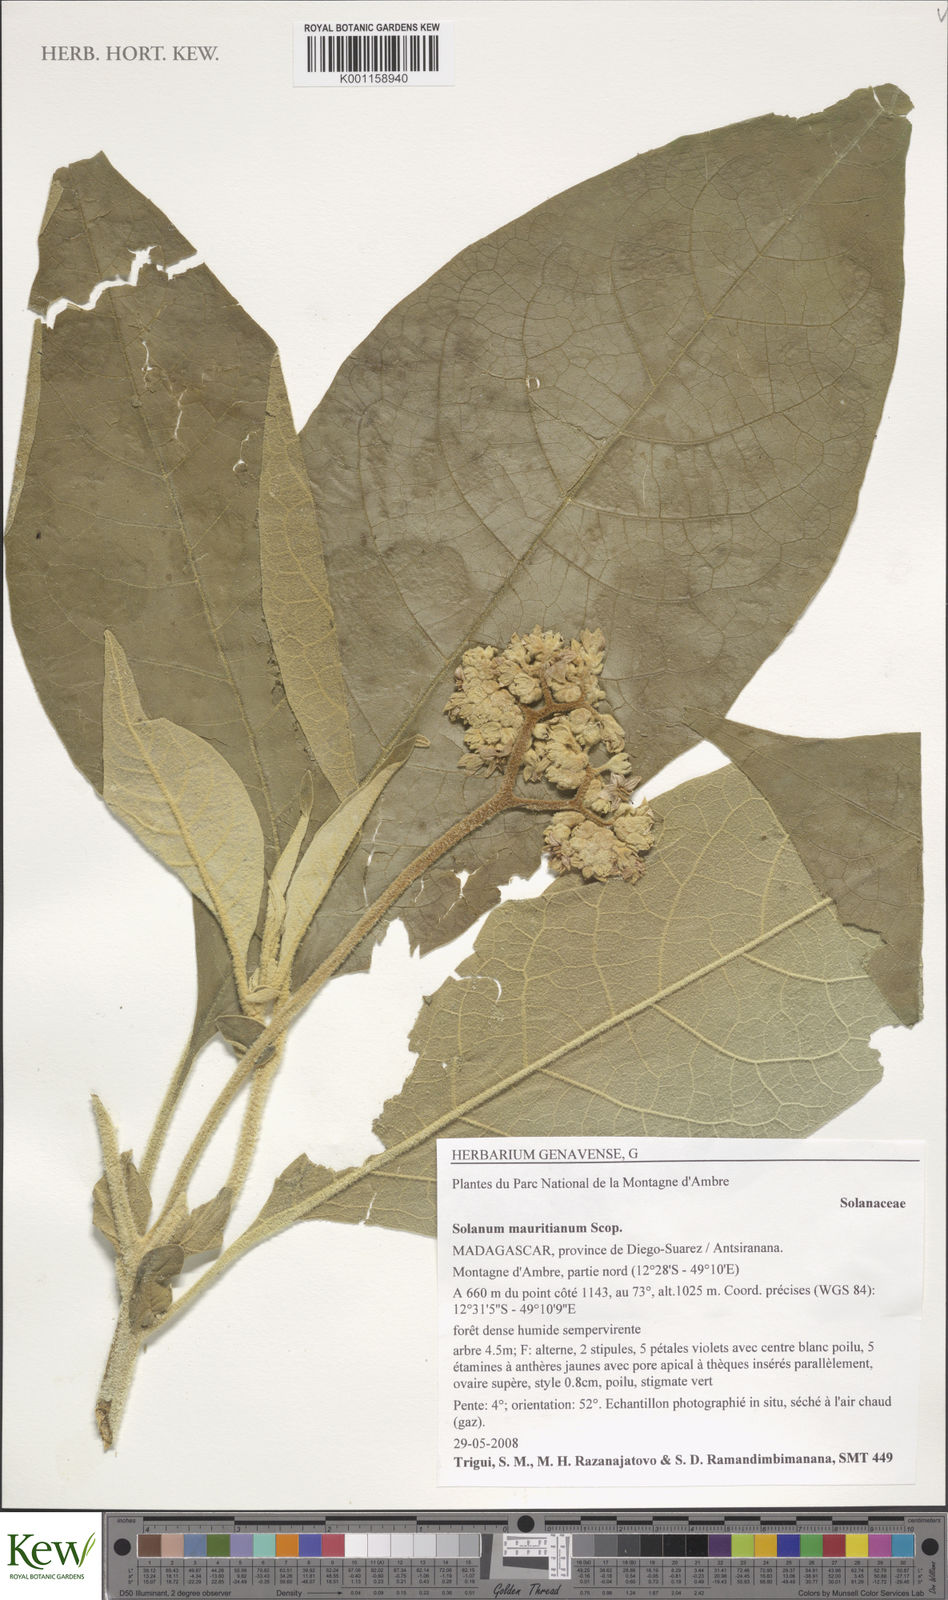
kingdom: Plantae
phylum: Tracheophyta
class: Magnoliopsida
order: Solanales
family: Solanaceae
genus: Solanum
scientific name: Solanum mauritianum
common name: Earleaf nightshade
